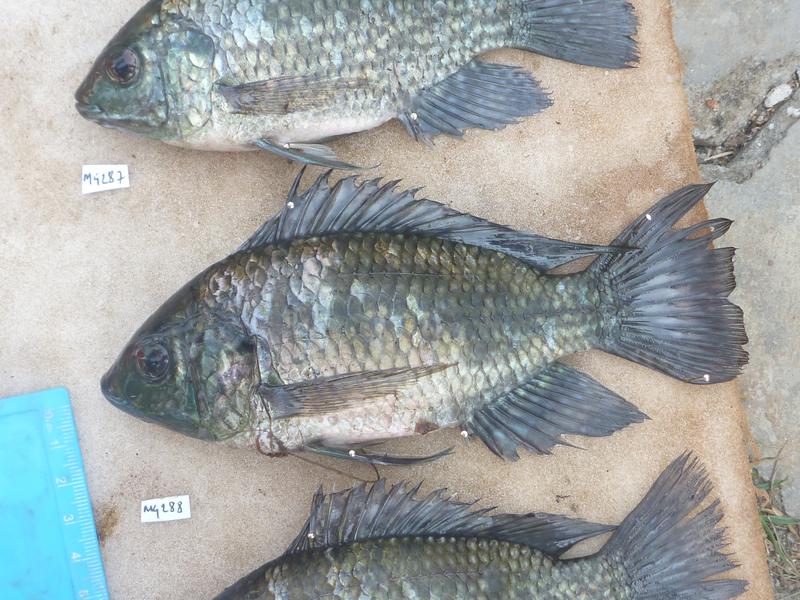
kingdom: Animalia
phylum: Chordata
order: Perciformes
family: Cichlidae
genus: Oreochromis
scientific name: Oreochromis leucostictus
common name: Blue spotted tilapia
